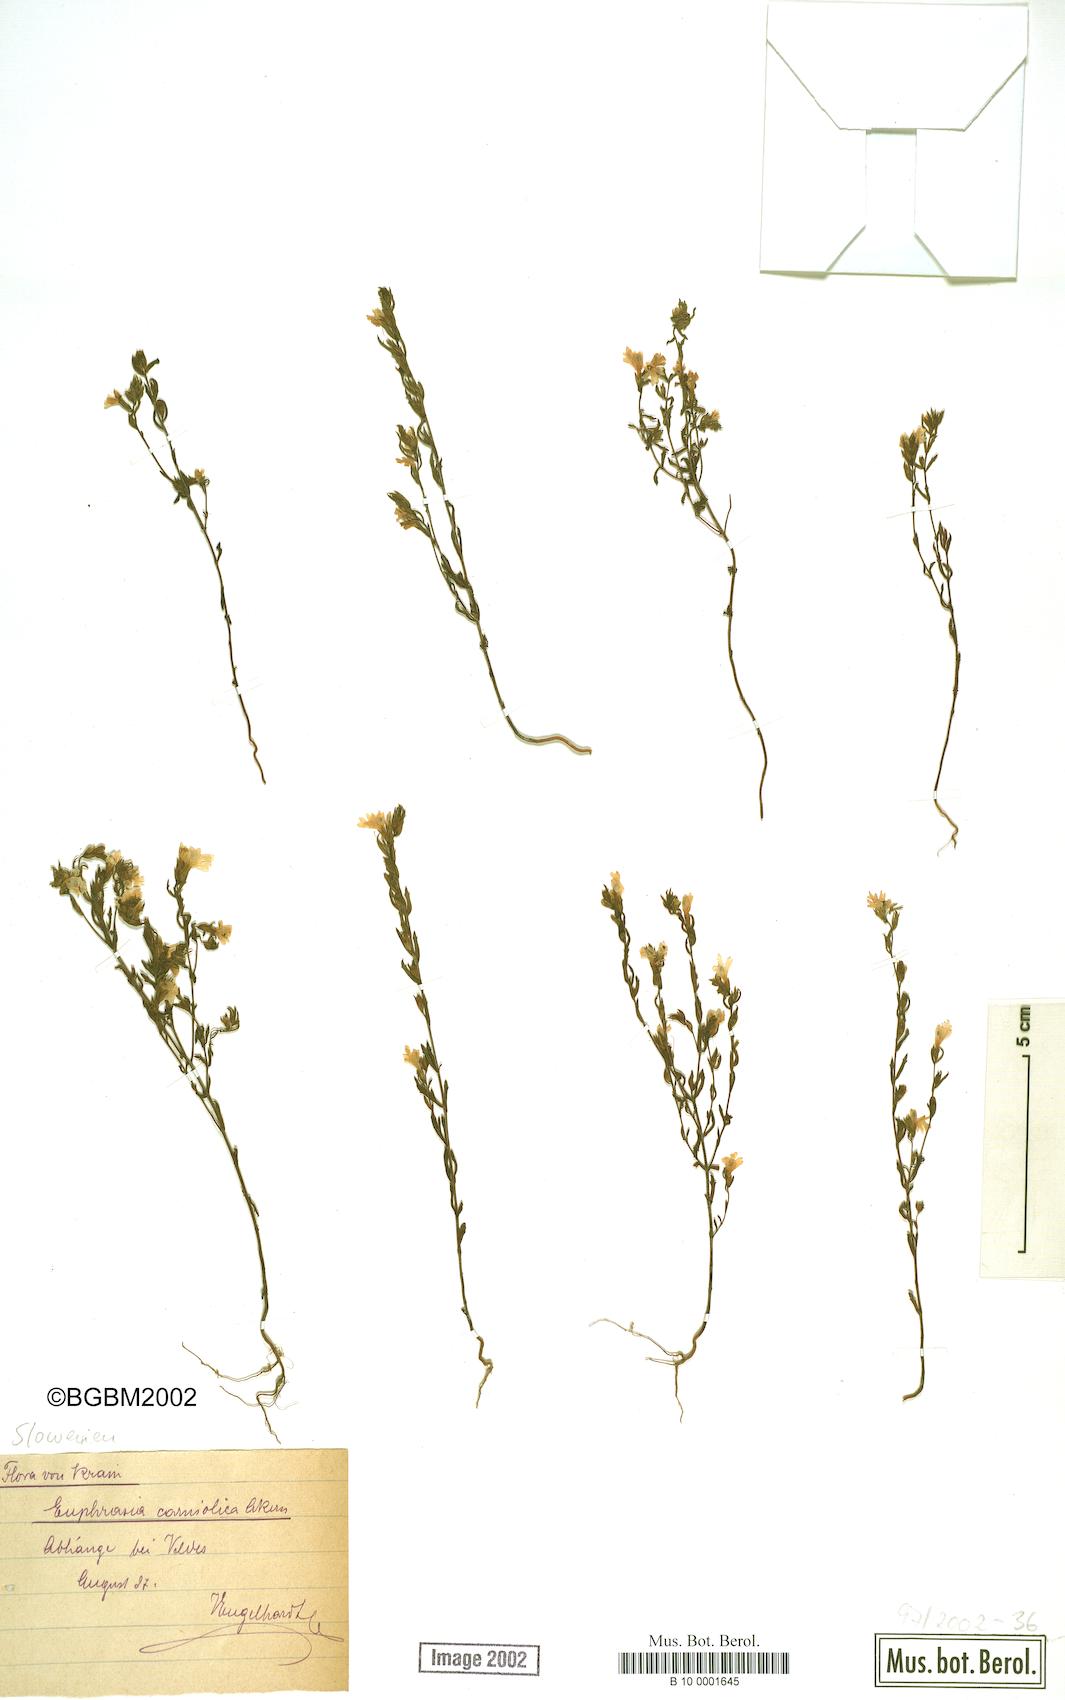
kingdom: Plantae
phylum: Tracheophyta
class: Magnoliopsida
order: Lamiales
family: Orobanchaceae
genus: Euphrasia
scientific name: Euphrasia officinalis
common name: Eyebright
